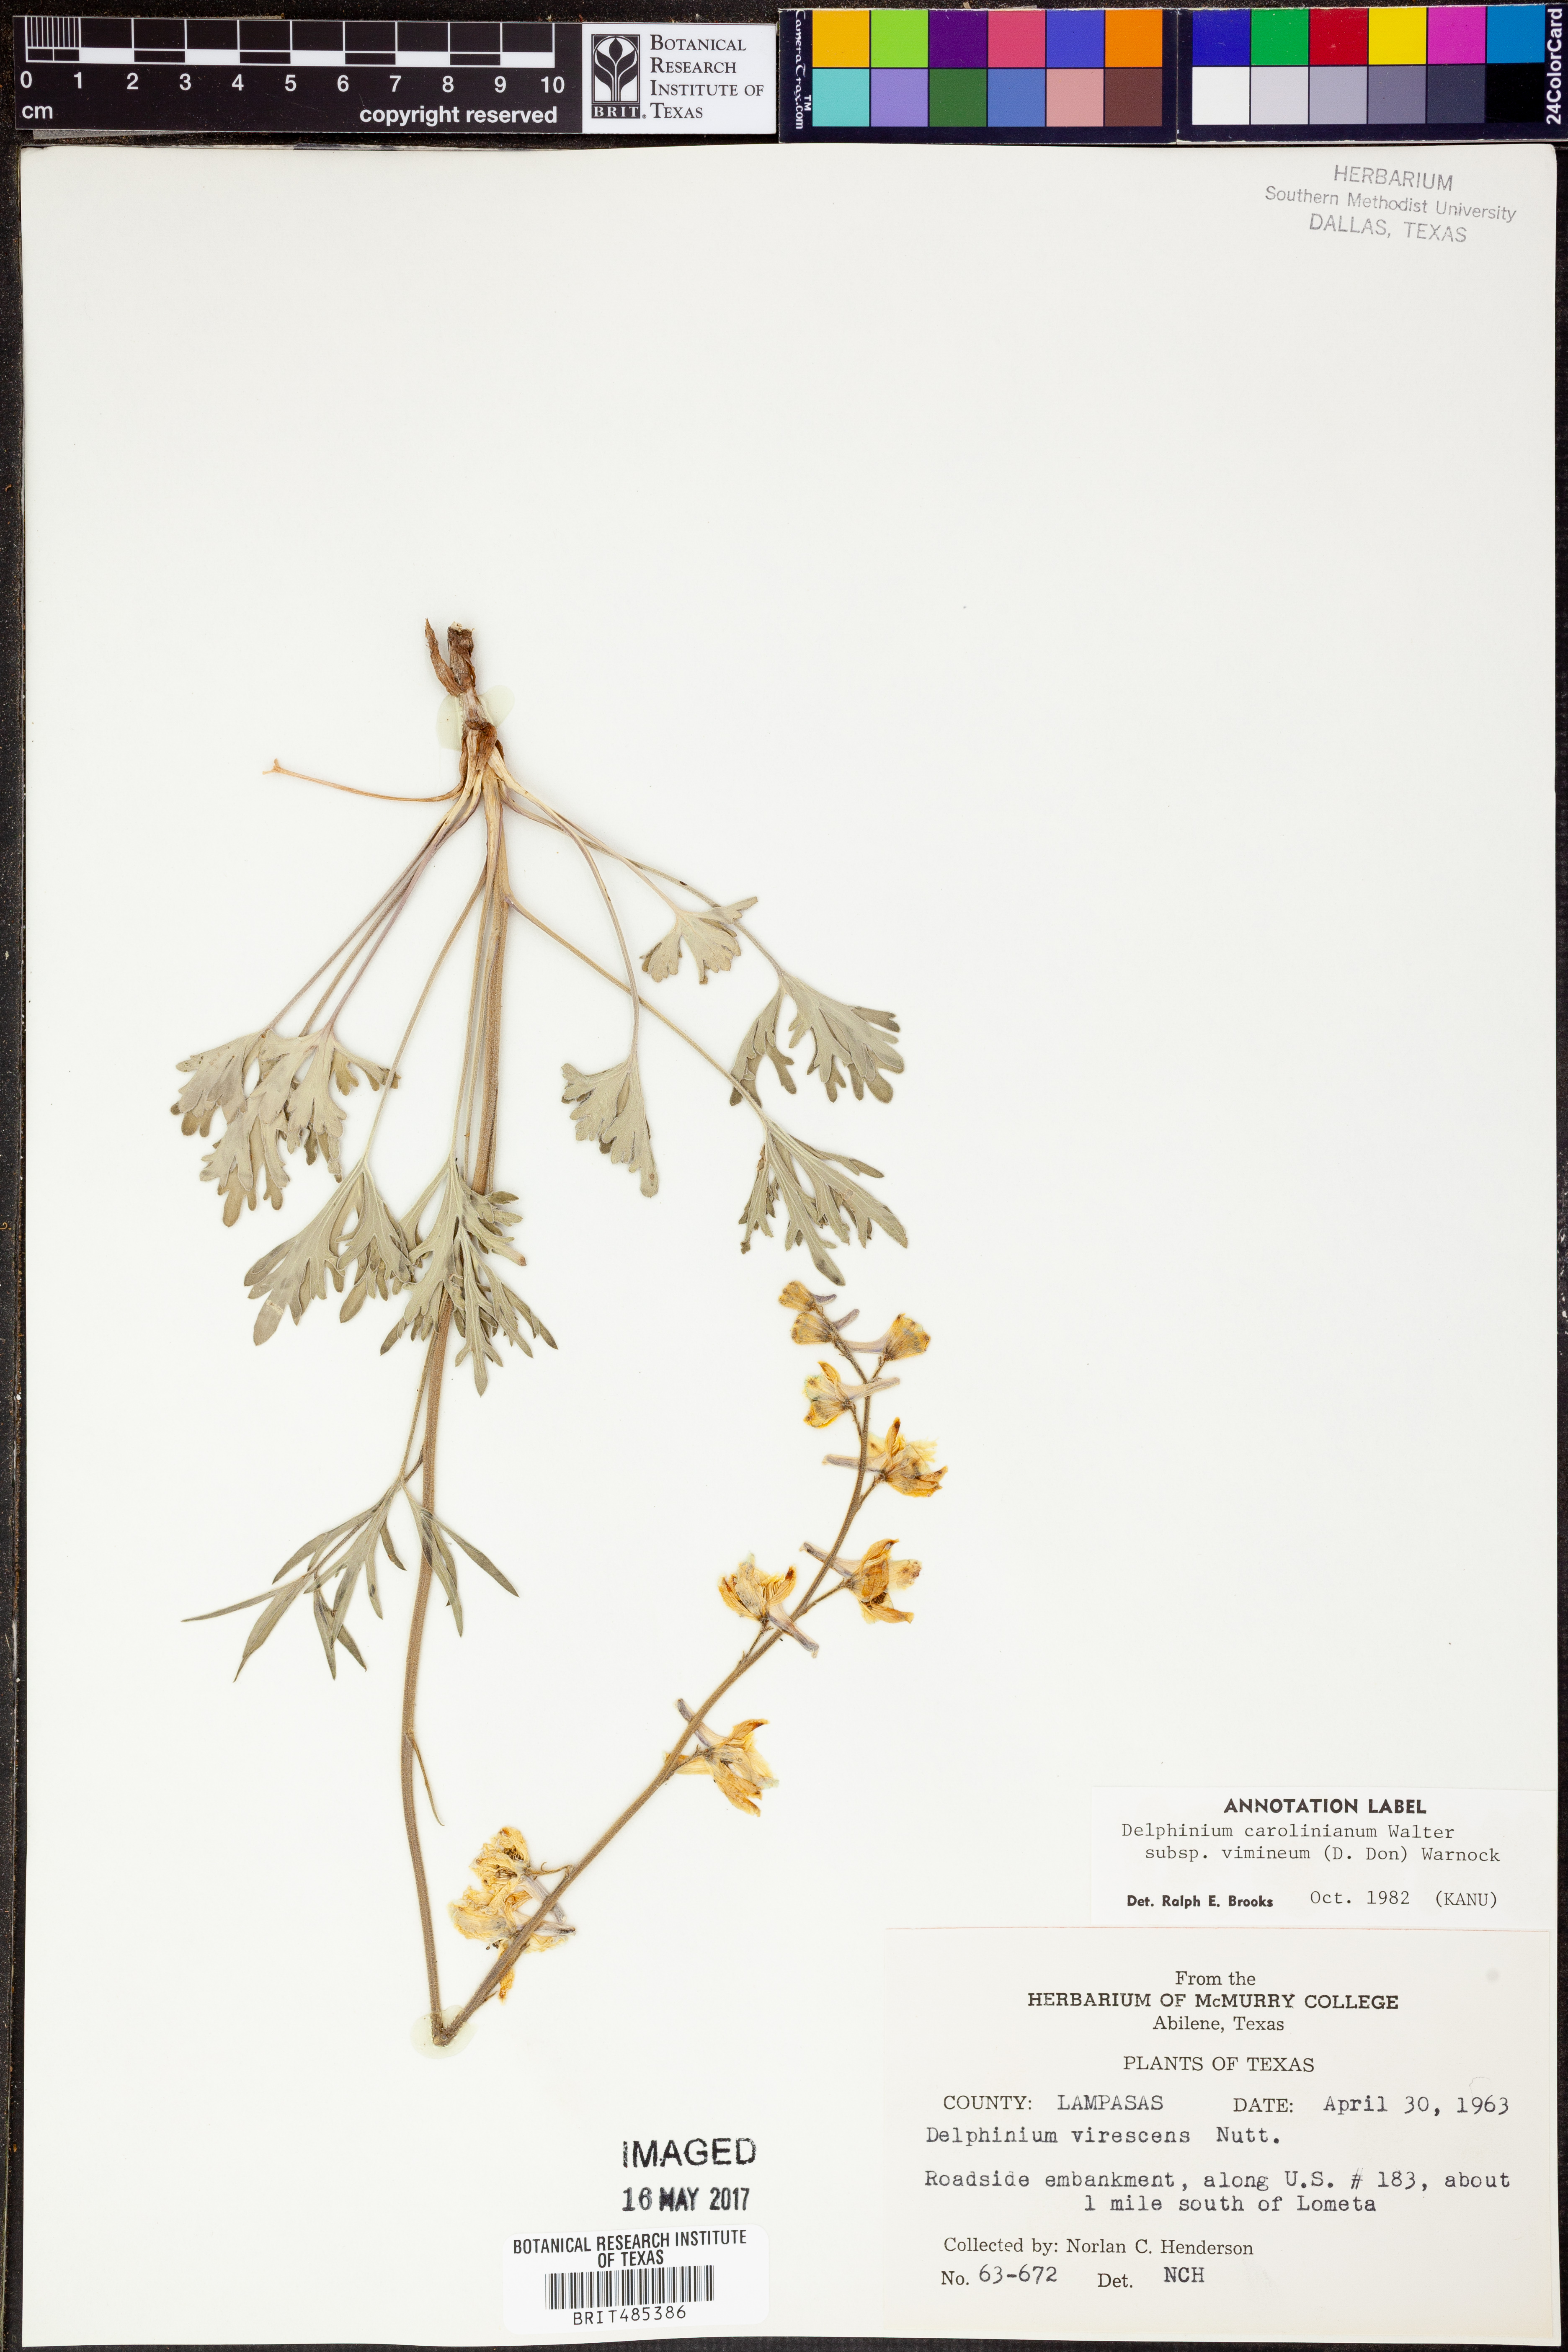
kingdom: Plantae
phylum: Tracheophyta
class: Magnoliopsida
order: Ranunculales
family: Ranunculaceae
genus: Delphinium
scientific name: Delphinium carolinianum
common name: Carolina larkspur
